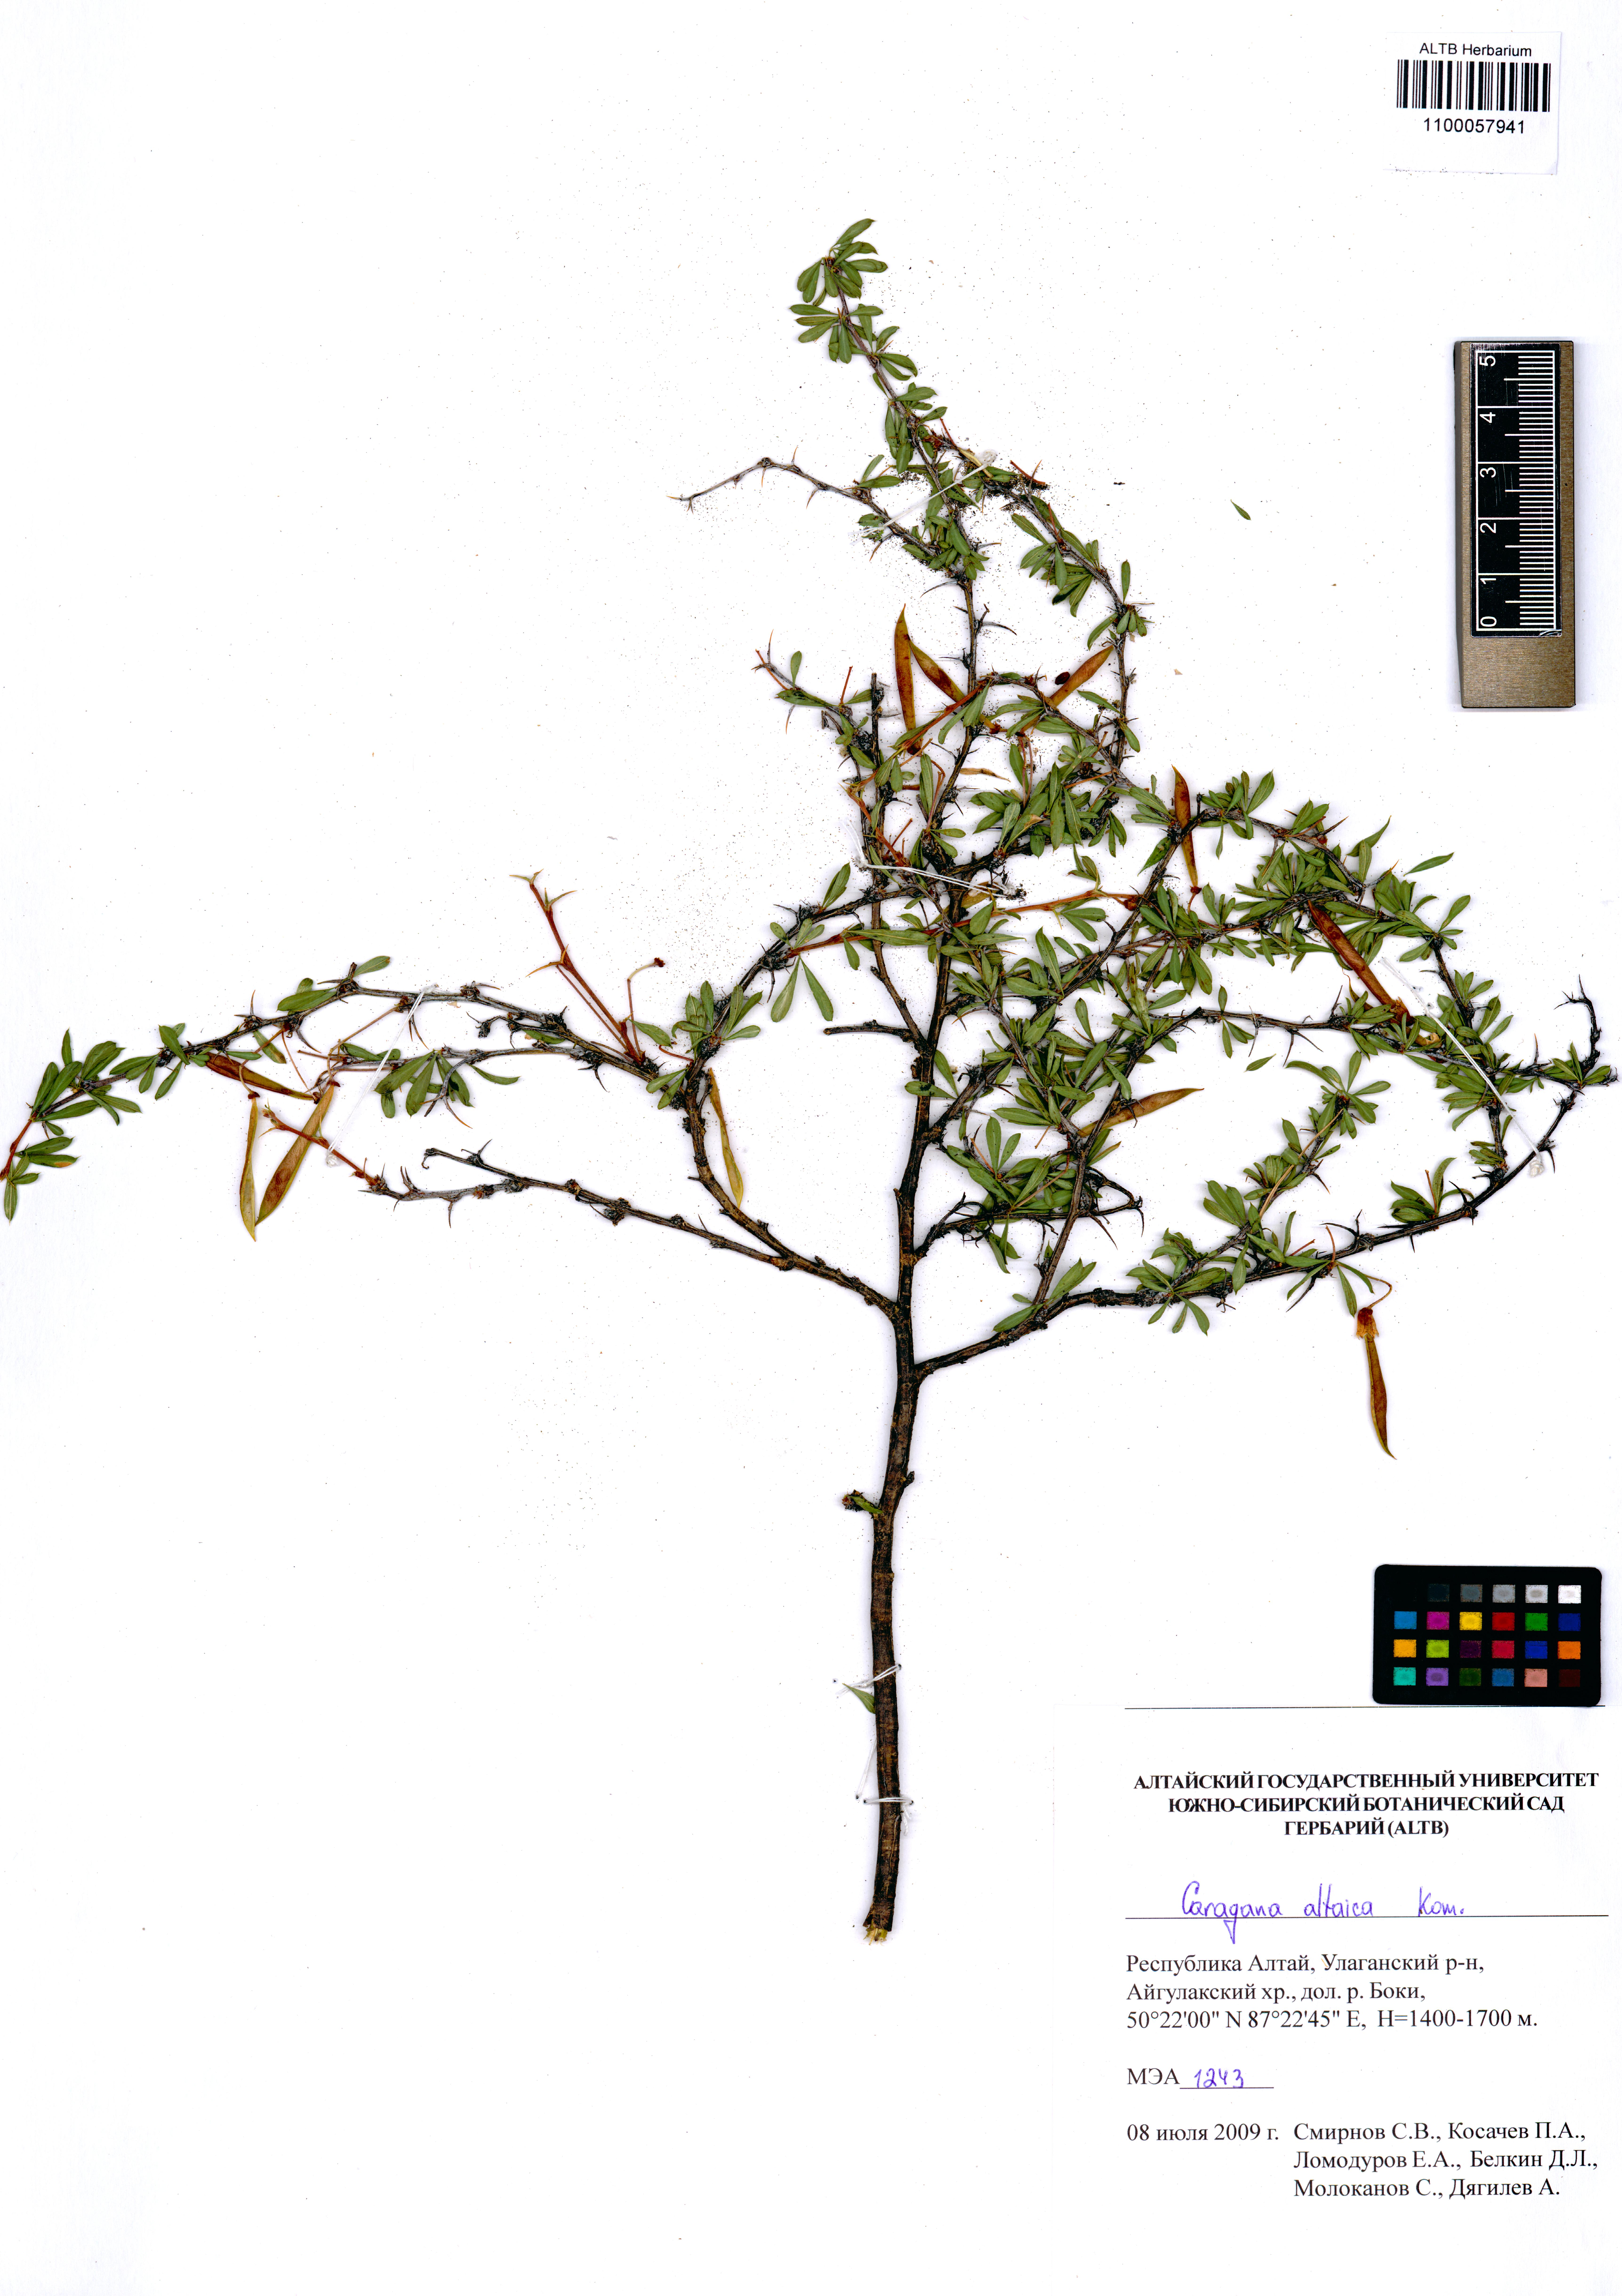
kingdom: Plantae
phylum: Tracheophyta
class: Magnoliopsida
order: Fabales
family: Fabaceae
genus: Caragana
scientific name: Caragana pygmaea
